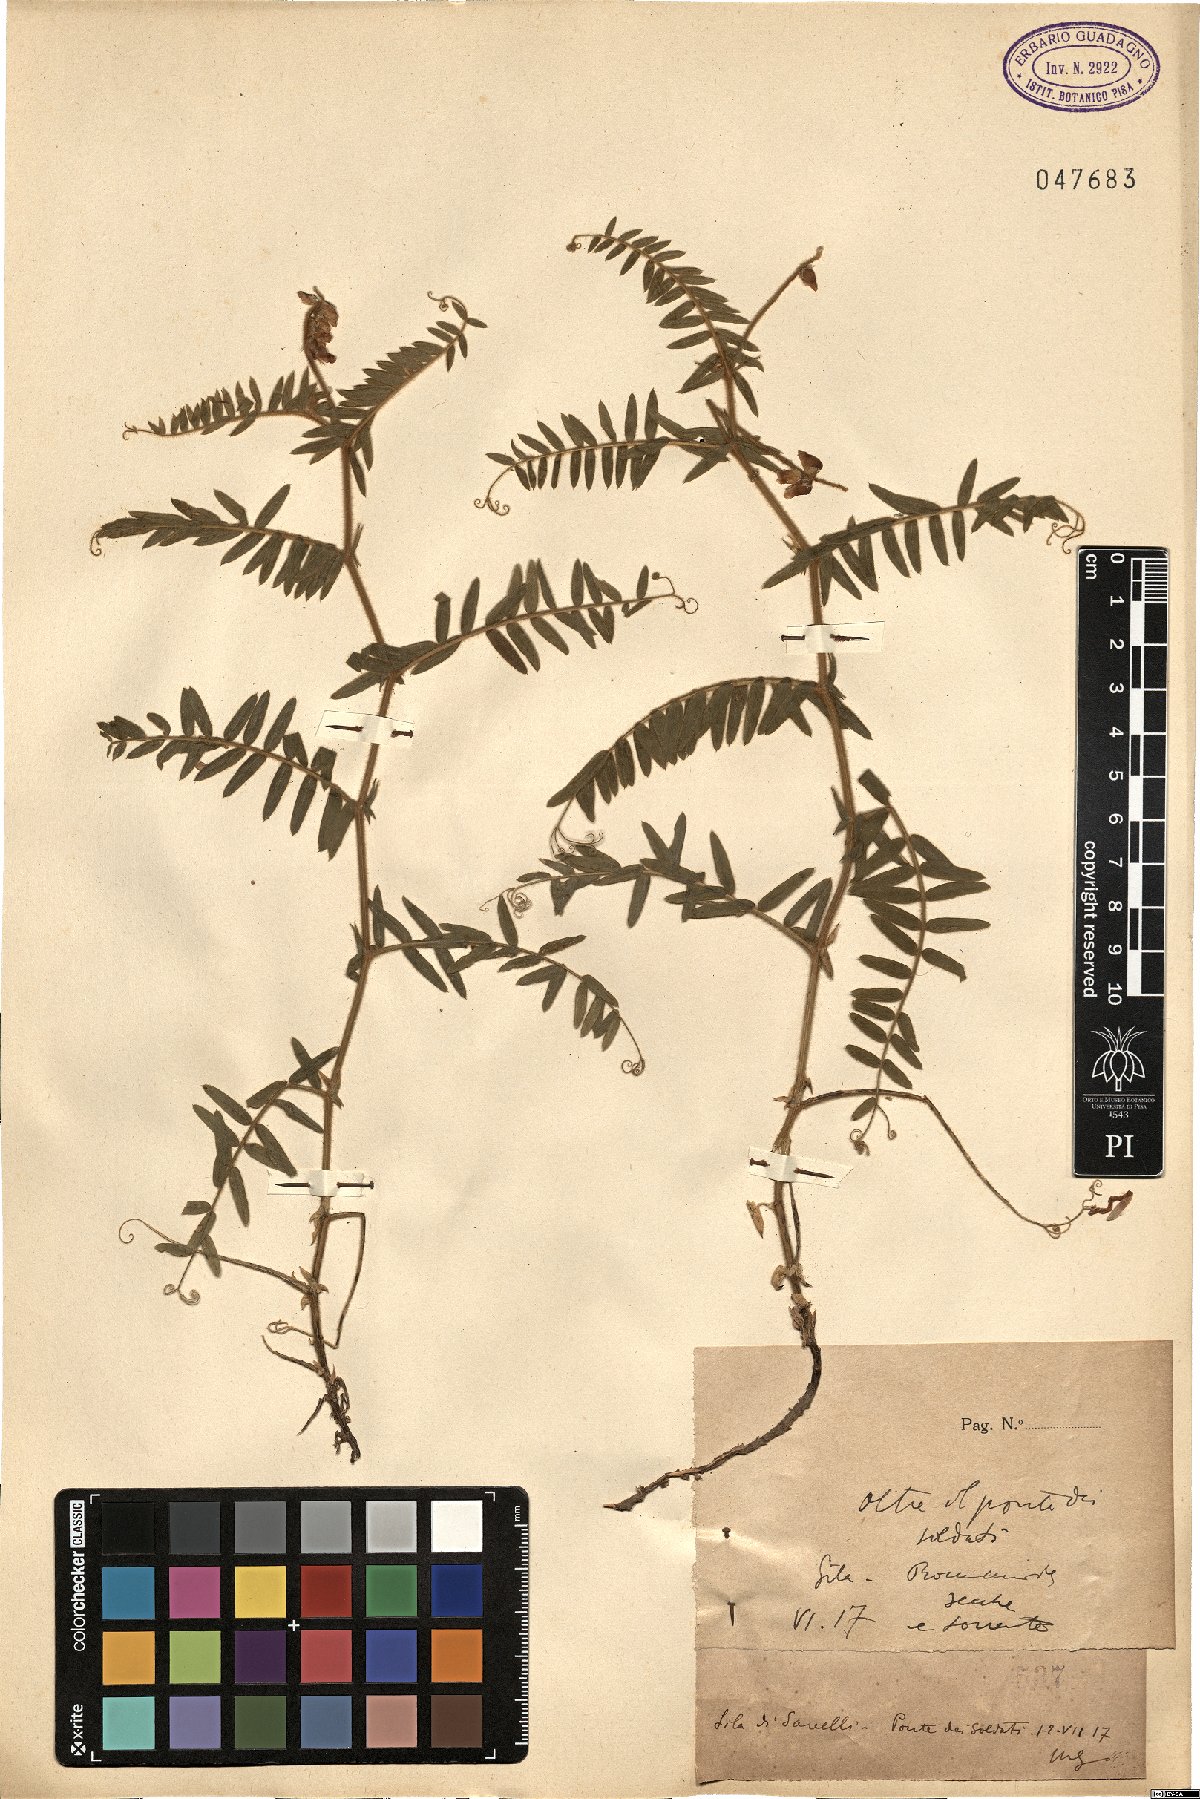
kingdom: Plantae
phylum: Tracheophyta
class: Magnoliopsida
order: Fabales
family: Fabaceae
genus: Vicia
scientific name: Vicia
